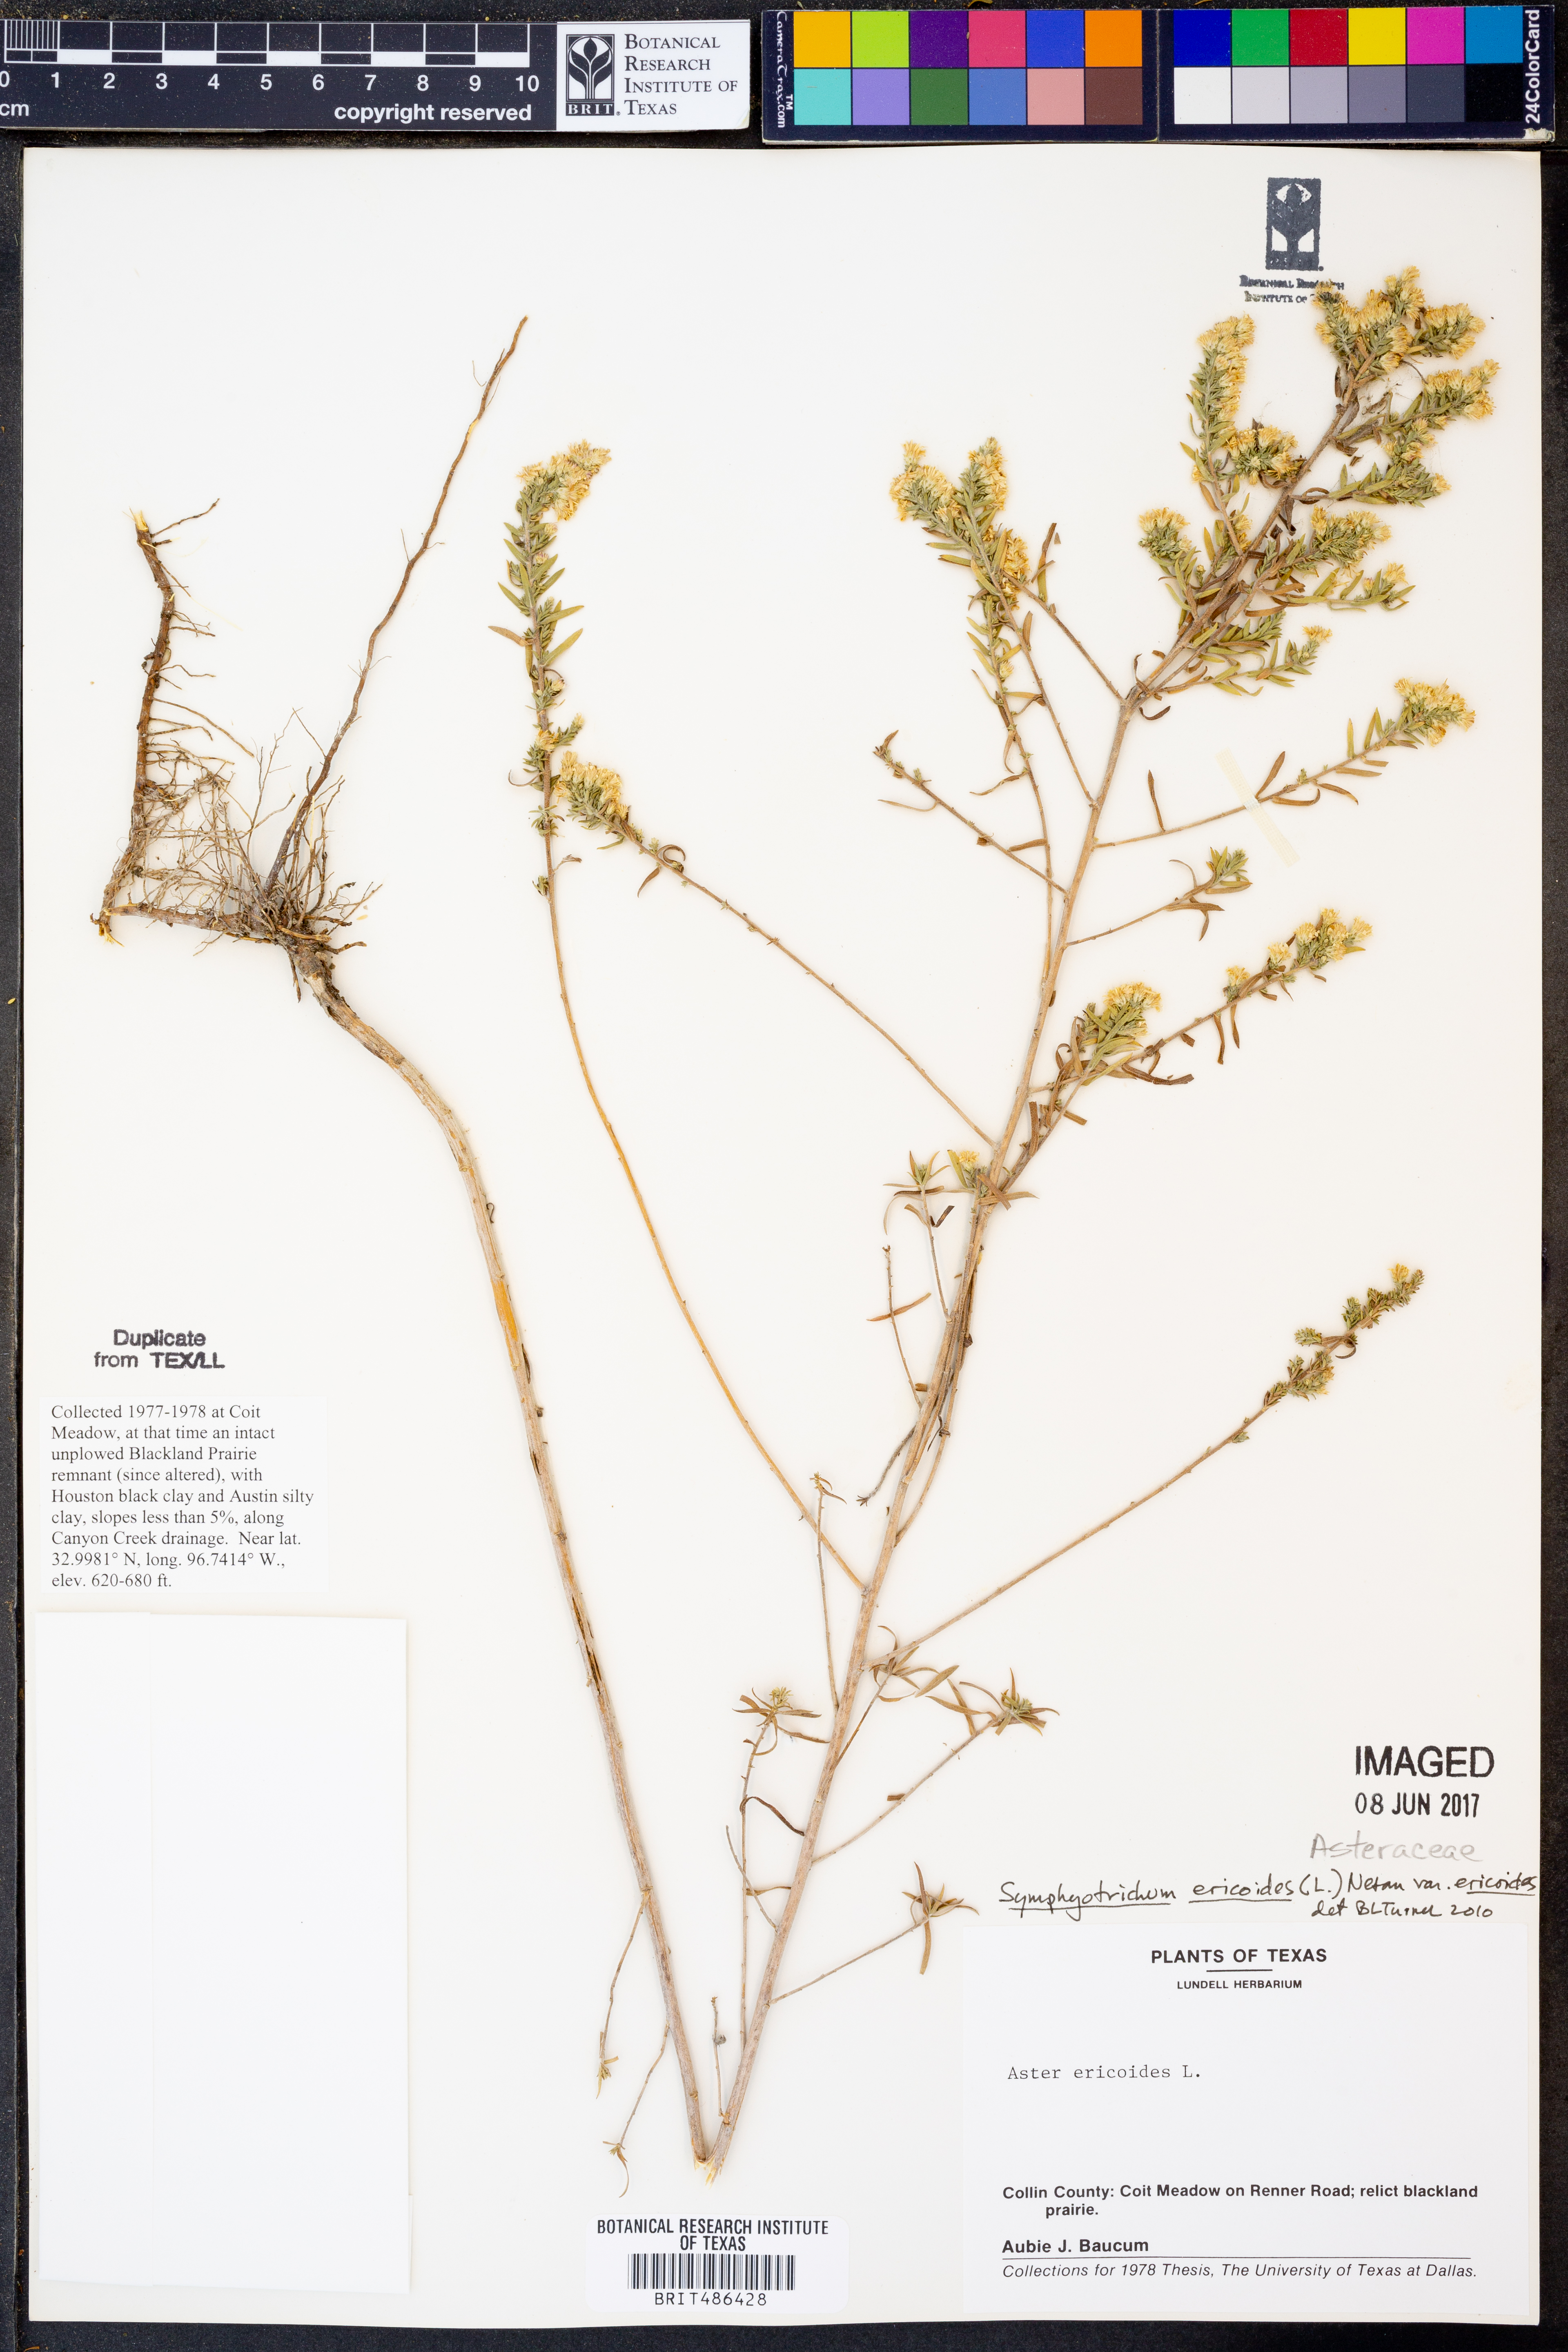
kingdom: Plantae
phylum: Tracheophyta
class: Magnoliopsida
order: Asterales
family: Asteraceae
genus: Symphyotrichum
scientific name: Symphyotrichum ericoides
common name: Heath aster
